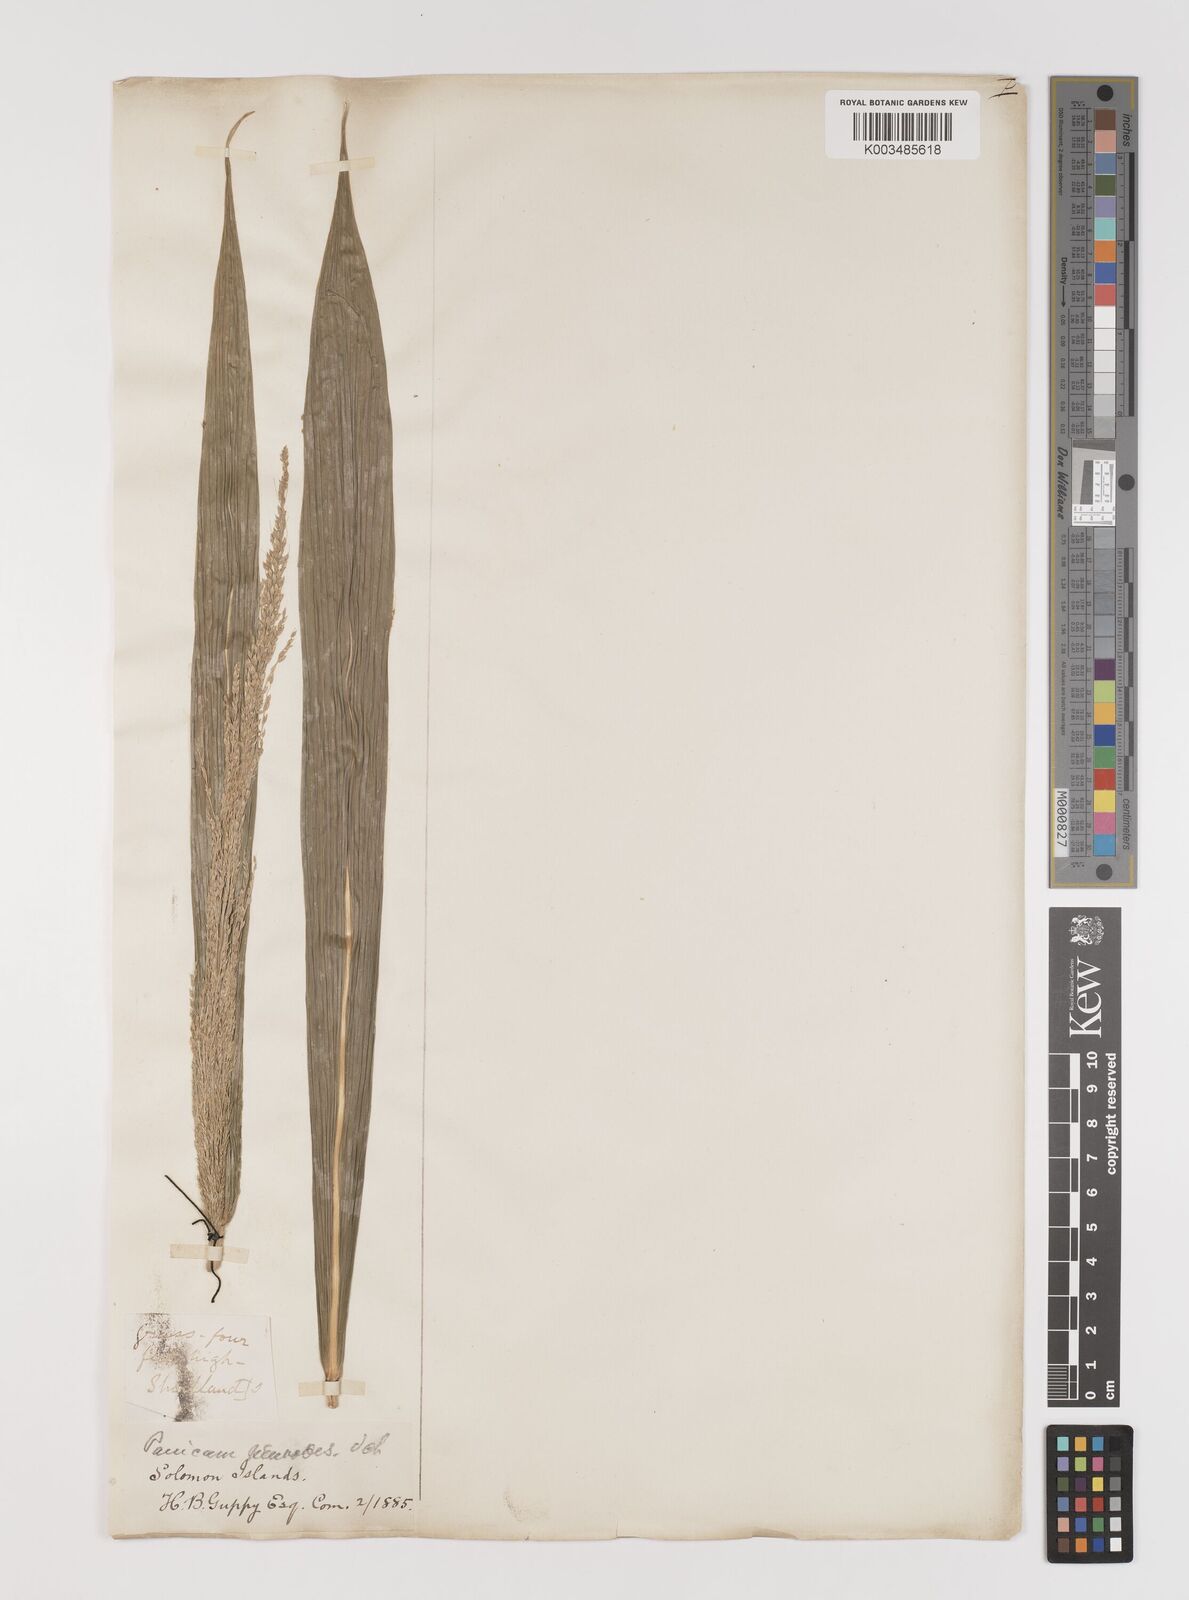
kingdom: Plantae
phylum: Tracheophyta
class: Liliopsida
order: Poales
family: Poaceae
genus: Setaria
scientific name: Setaria palmifolia
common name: Broadleaved bristlegrass
